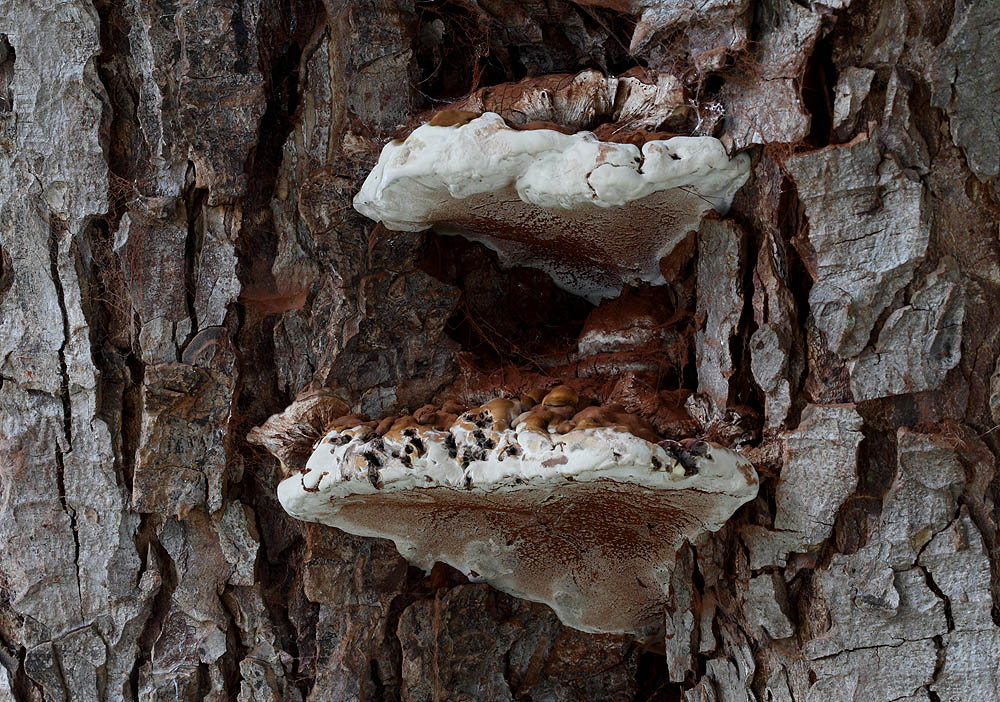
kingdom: Fungi
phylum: Basidiomycota
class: Agaricomycetes
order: Polyporales
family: Polyporaceae
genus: Ganoderma
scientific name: Ganoderma adspersum
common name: grov lakporesvamp
